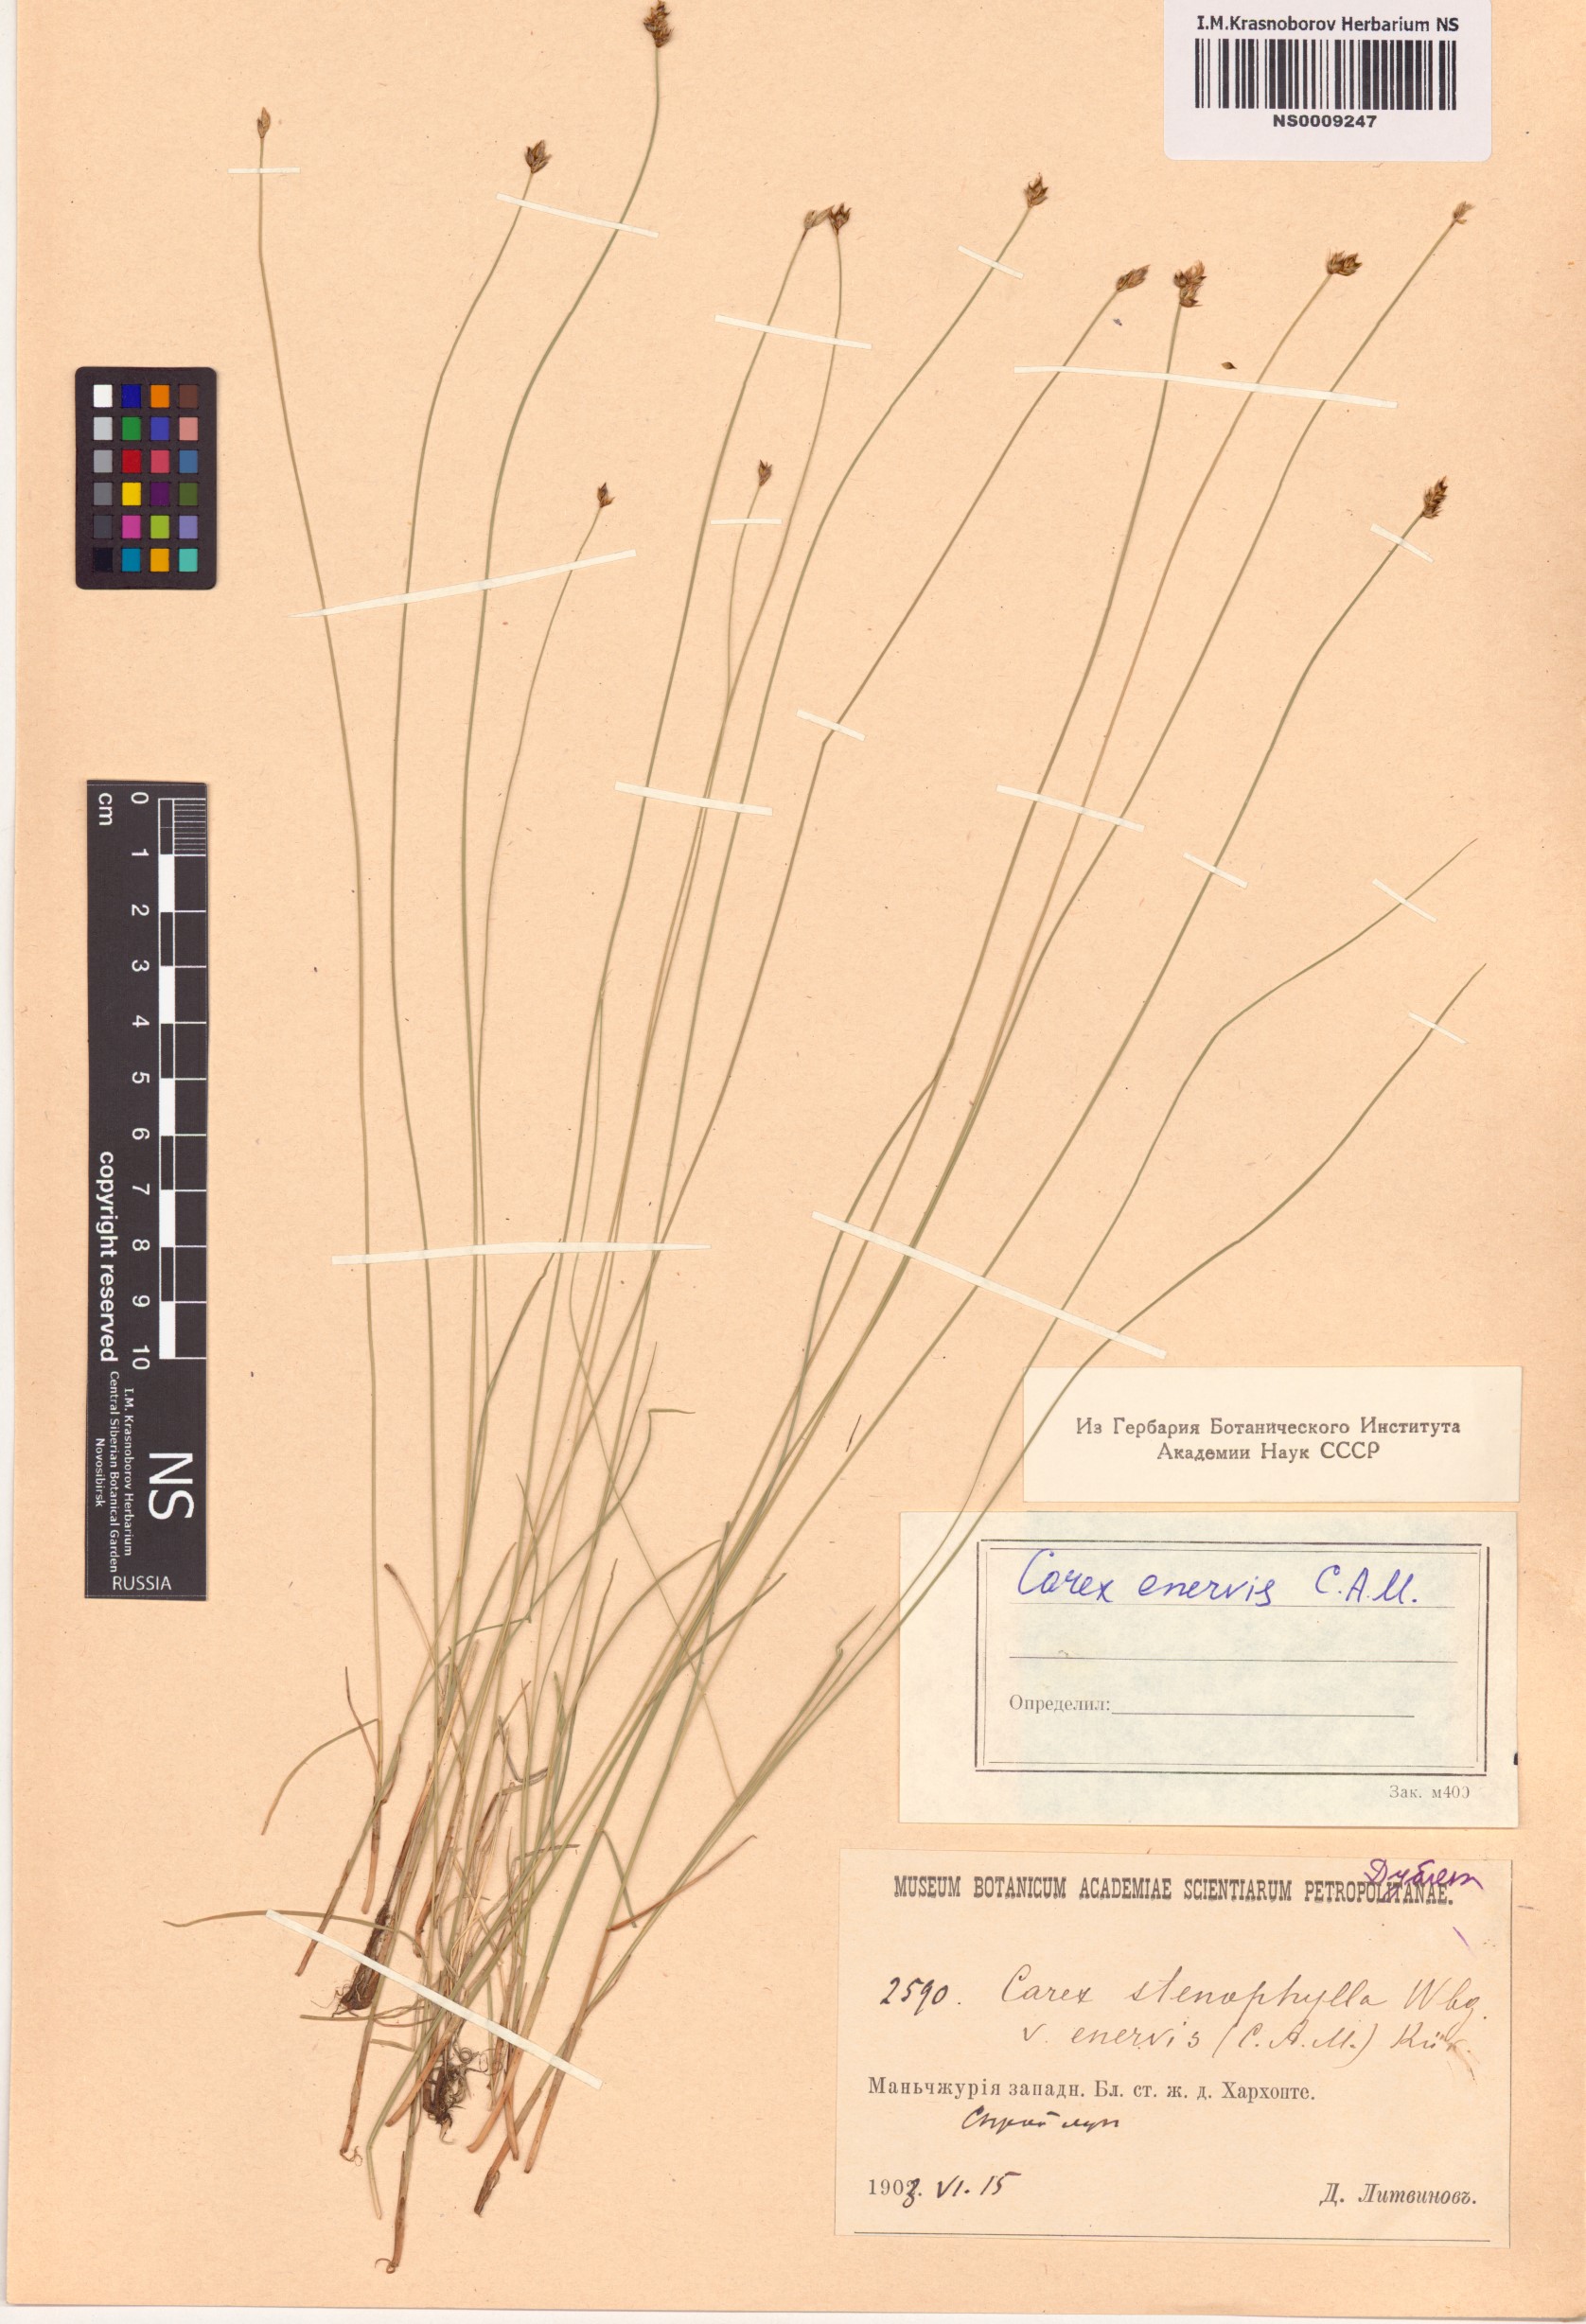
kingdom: Plantae
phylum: Tracheophyta
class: Liliopsida
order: Poales
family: Cyperaceae
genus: Carex
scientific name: Carex enervis
